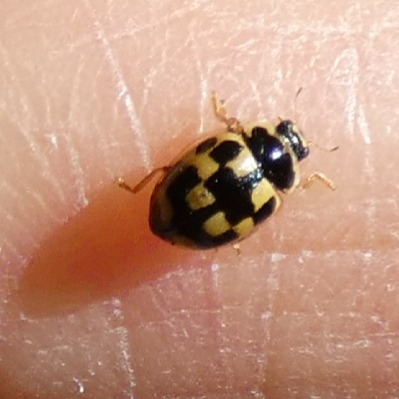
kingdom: Animalia
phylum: Arthropoda
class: Insecta
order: Coleoptera
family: Coccinellidae
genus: Propylaea
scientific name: Propylaea quatuordecimpunctata
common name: Skakbræt
